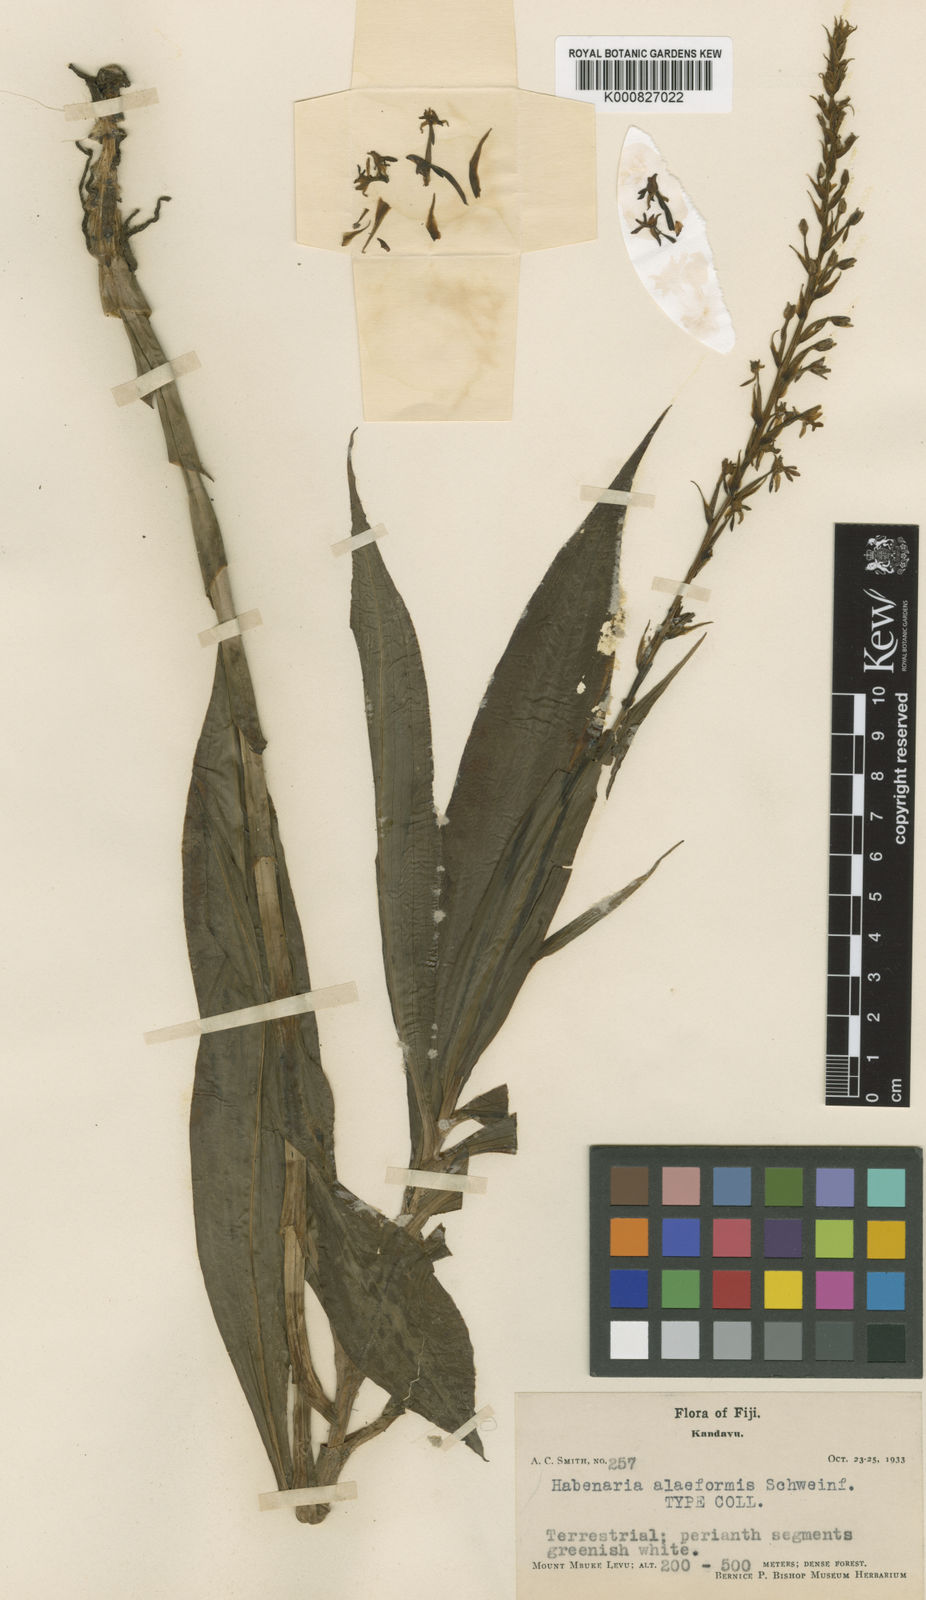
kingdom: Plantae
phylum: Tracheophyta
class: Liliopsida
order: Asparagales
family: Orchidaceae
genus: Peristylus
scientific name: Peristylus aliformis
